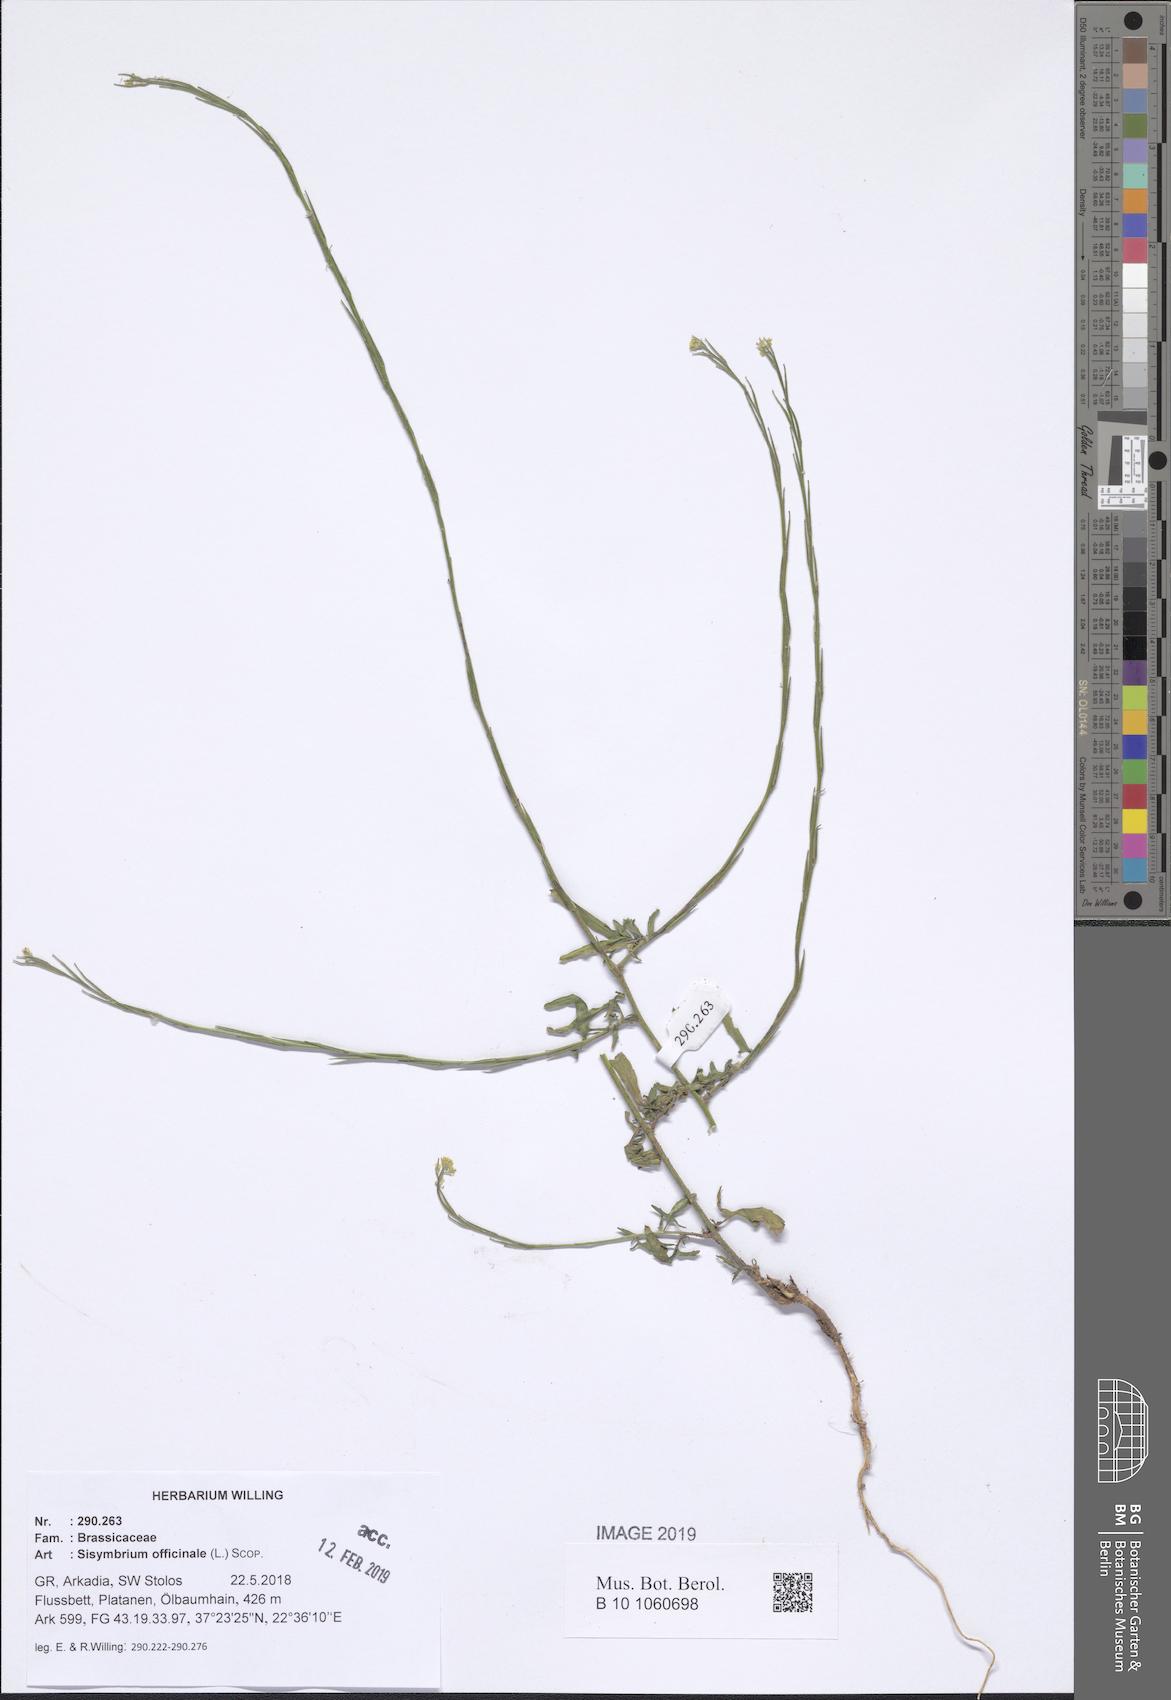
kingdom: Plantae
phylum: Tracheophyta
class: Magnoliopsida
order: Brassicales
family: Brassicaceae
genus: Sisymbrium
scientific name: Sisymbrium officinale
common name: Hedge mustard
